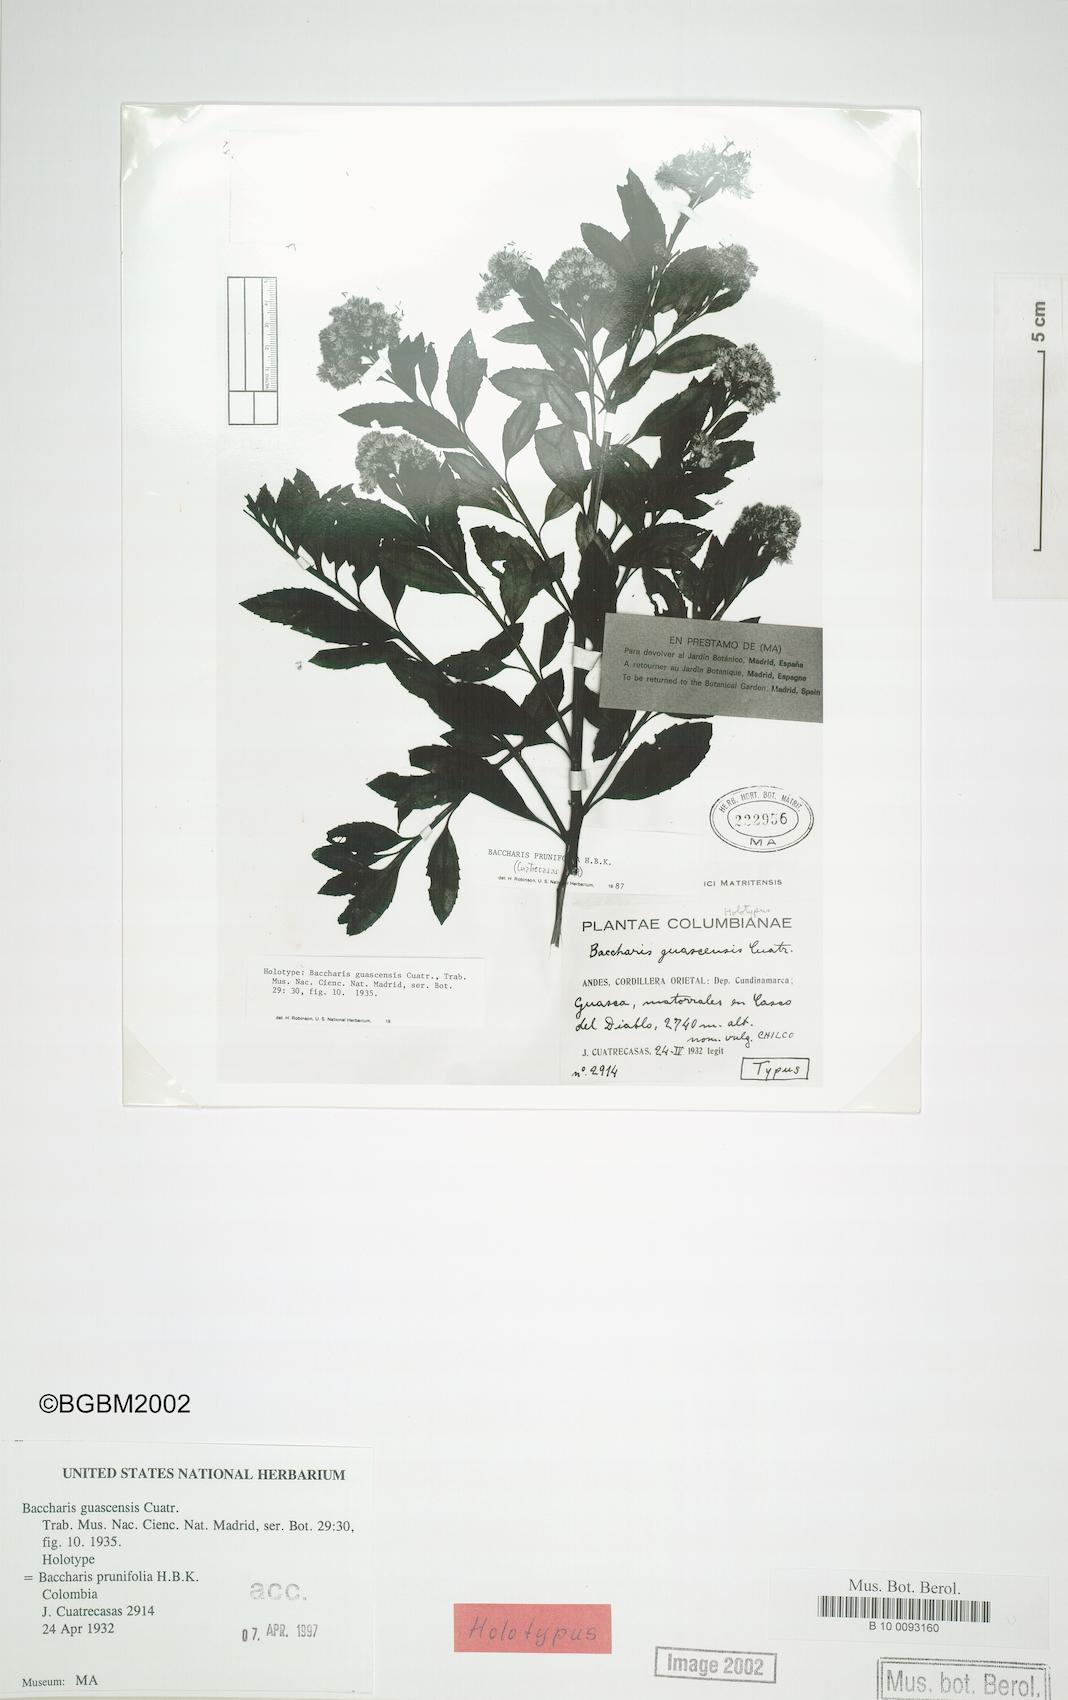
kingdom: Plantae
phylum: Tracheophyta
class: Magnoliopsida
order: Asterales
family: Asteraceae
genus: Baccharis
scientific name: Baccharis prunifolia
